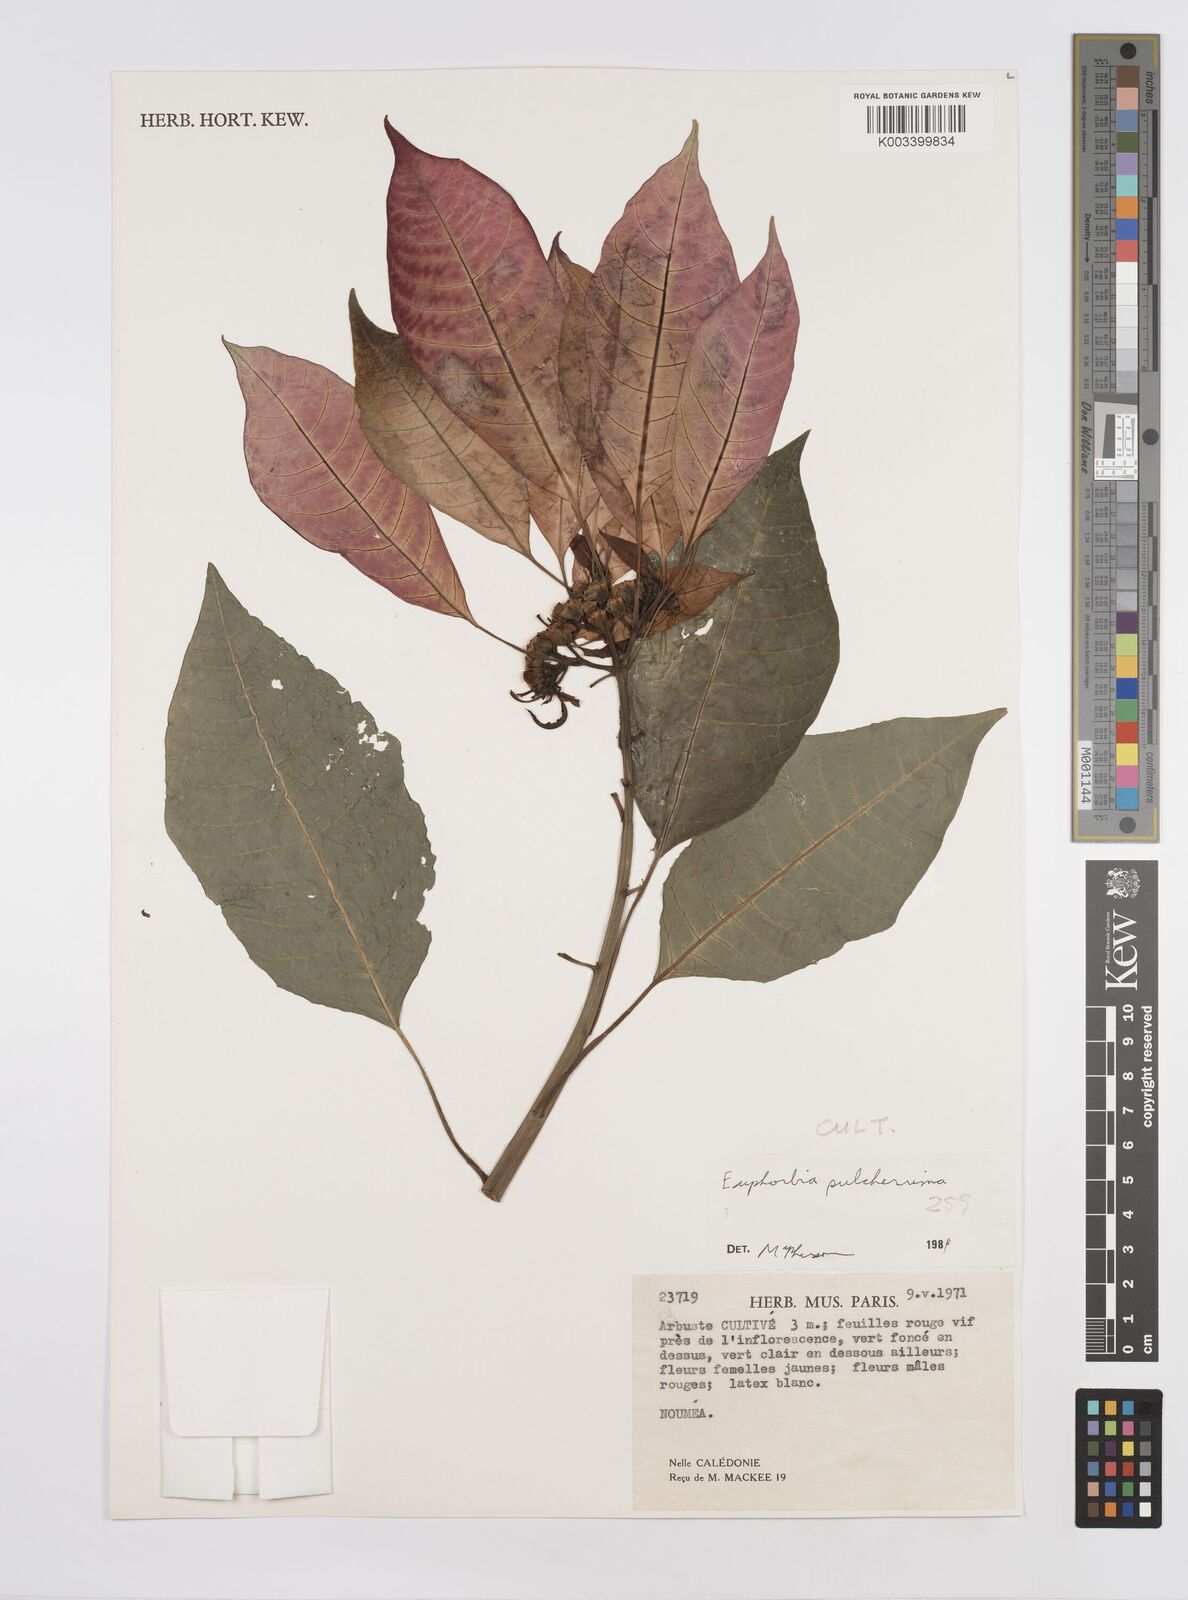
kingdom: Plantae
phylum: Tracheophyta
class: Magnoliopsida
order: Malpighiales
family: Euphorbiaceae
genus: Euphorbia
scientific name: Euphorbia pulcherrima
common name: Christmas-flower
